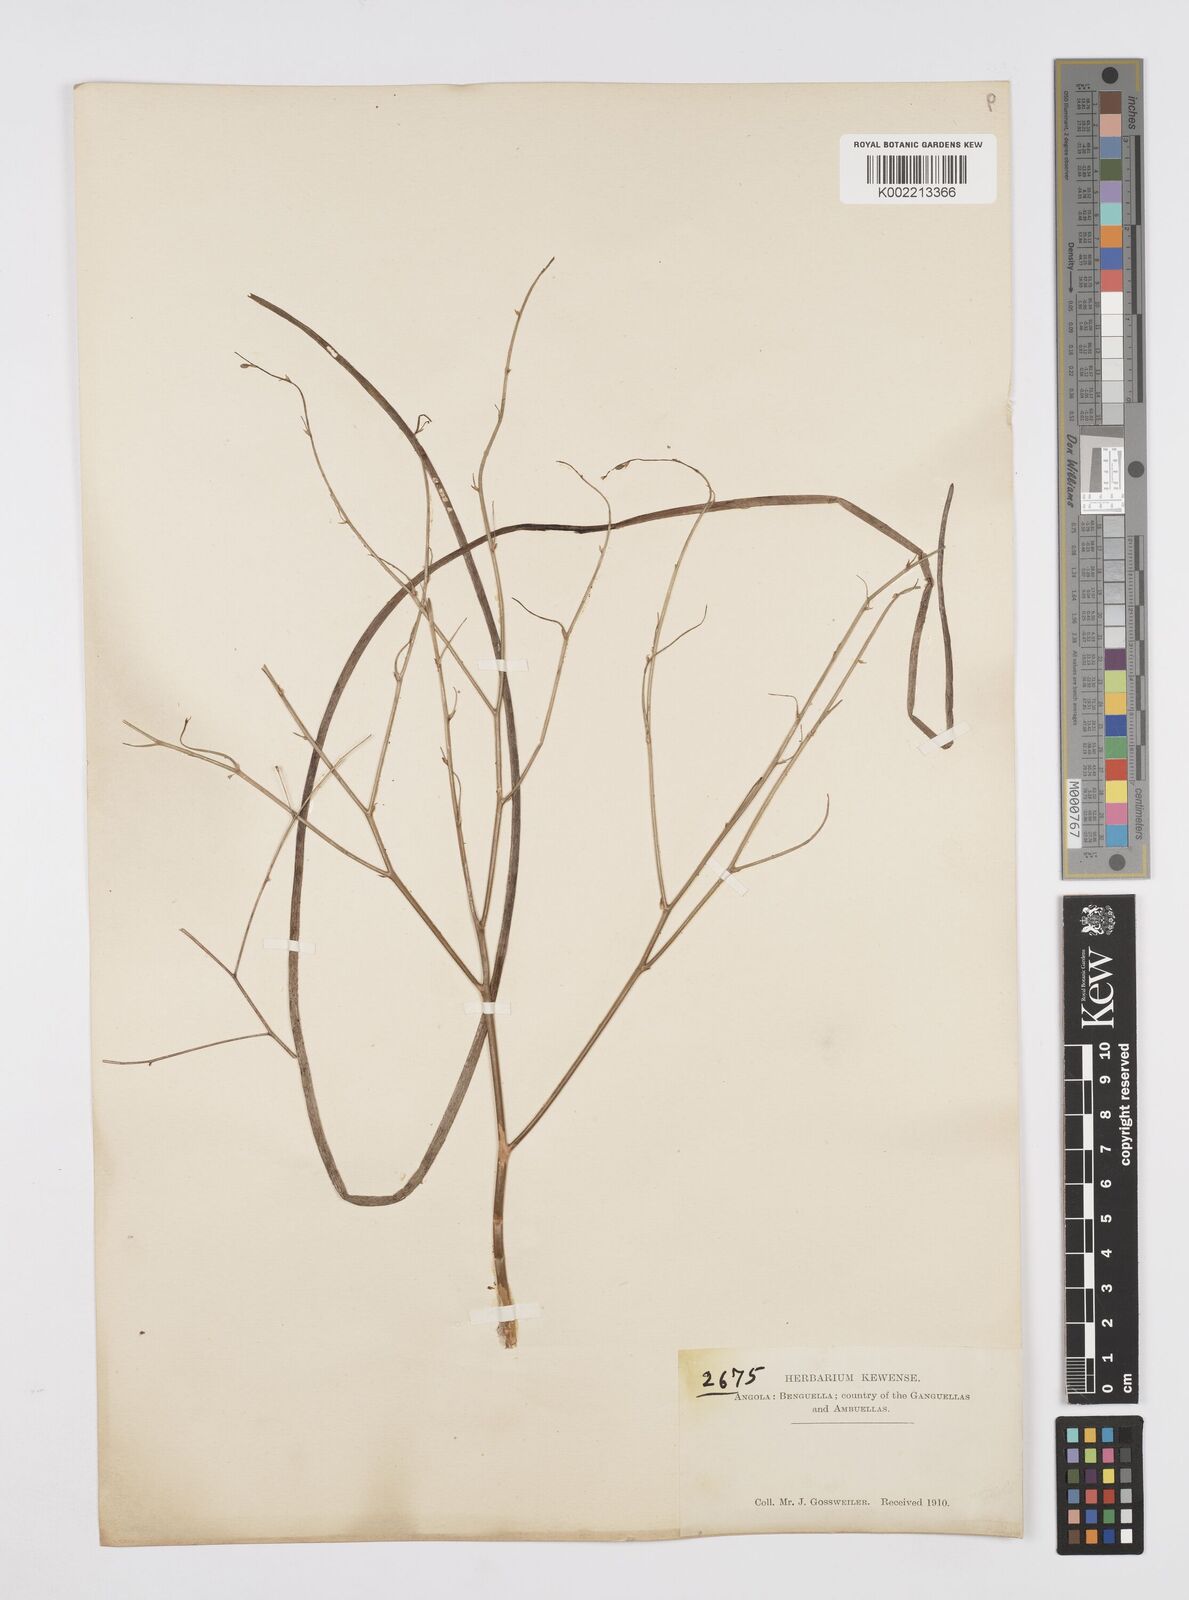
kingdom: Plantae
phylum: Tracheophyta
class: Liliopsida
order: Asparagales
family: Asphodelaceae
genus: Trachyandra
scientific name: Trachyandra arvensis
